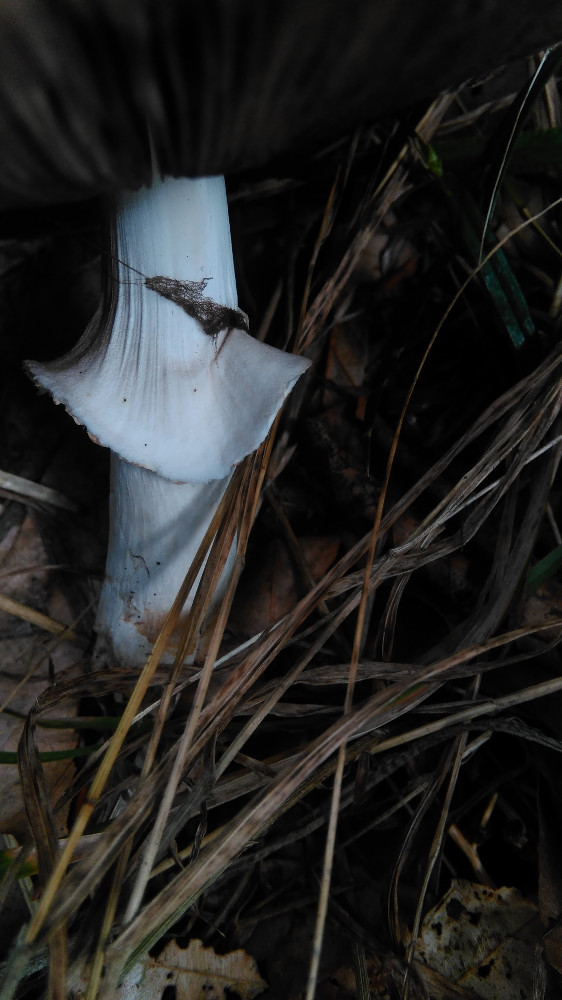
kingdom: Fungi
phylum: Basidiomycota
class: Agaricomycetes
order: Agaricales
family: Agaricaceae
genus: Agaricus
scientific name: Agaricus augustus
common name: prægtig champignon
